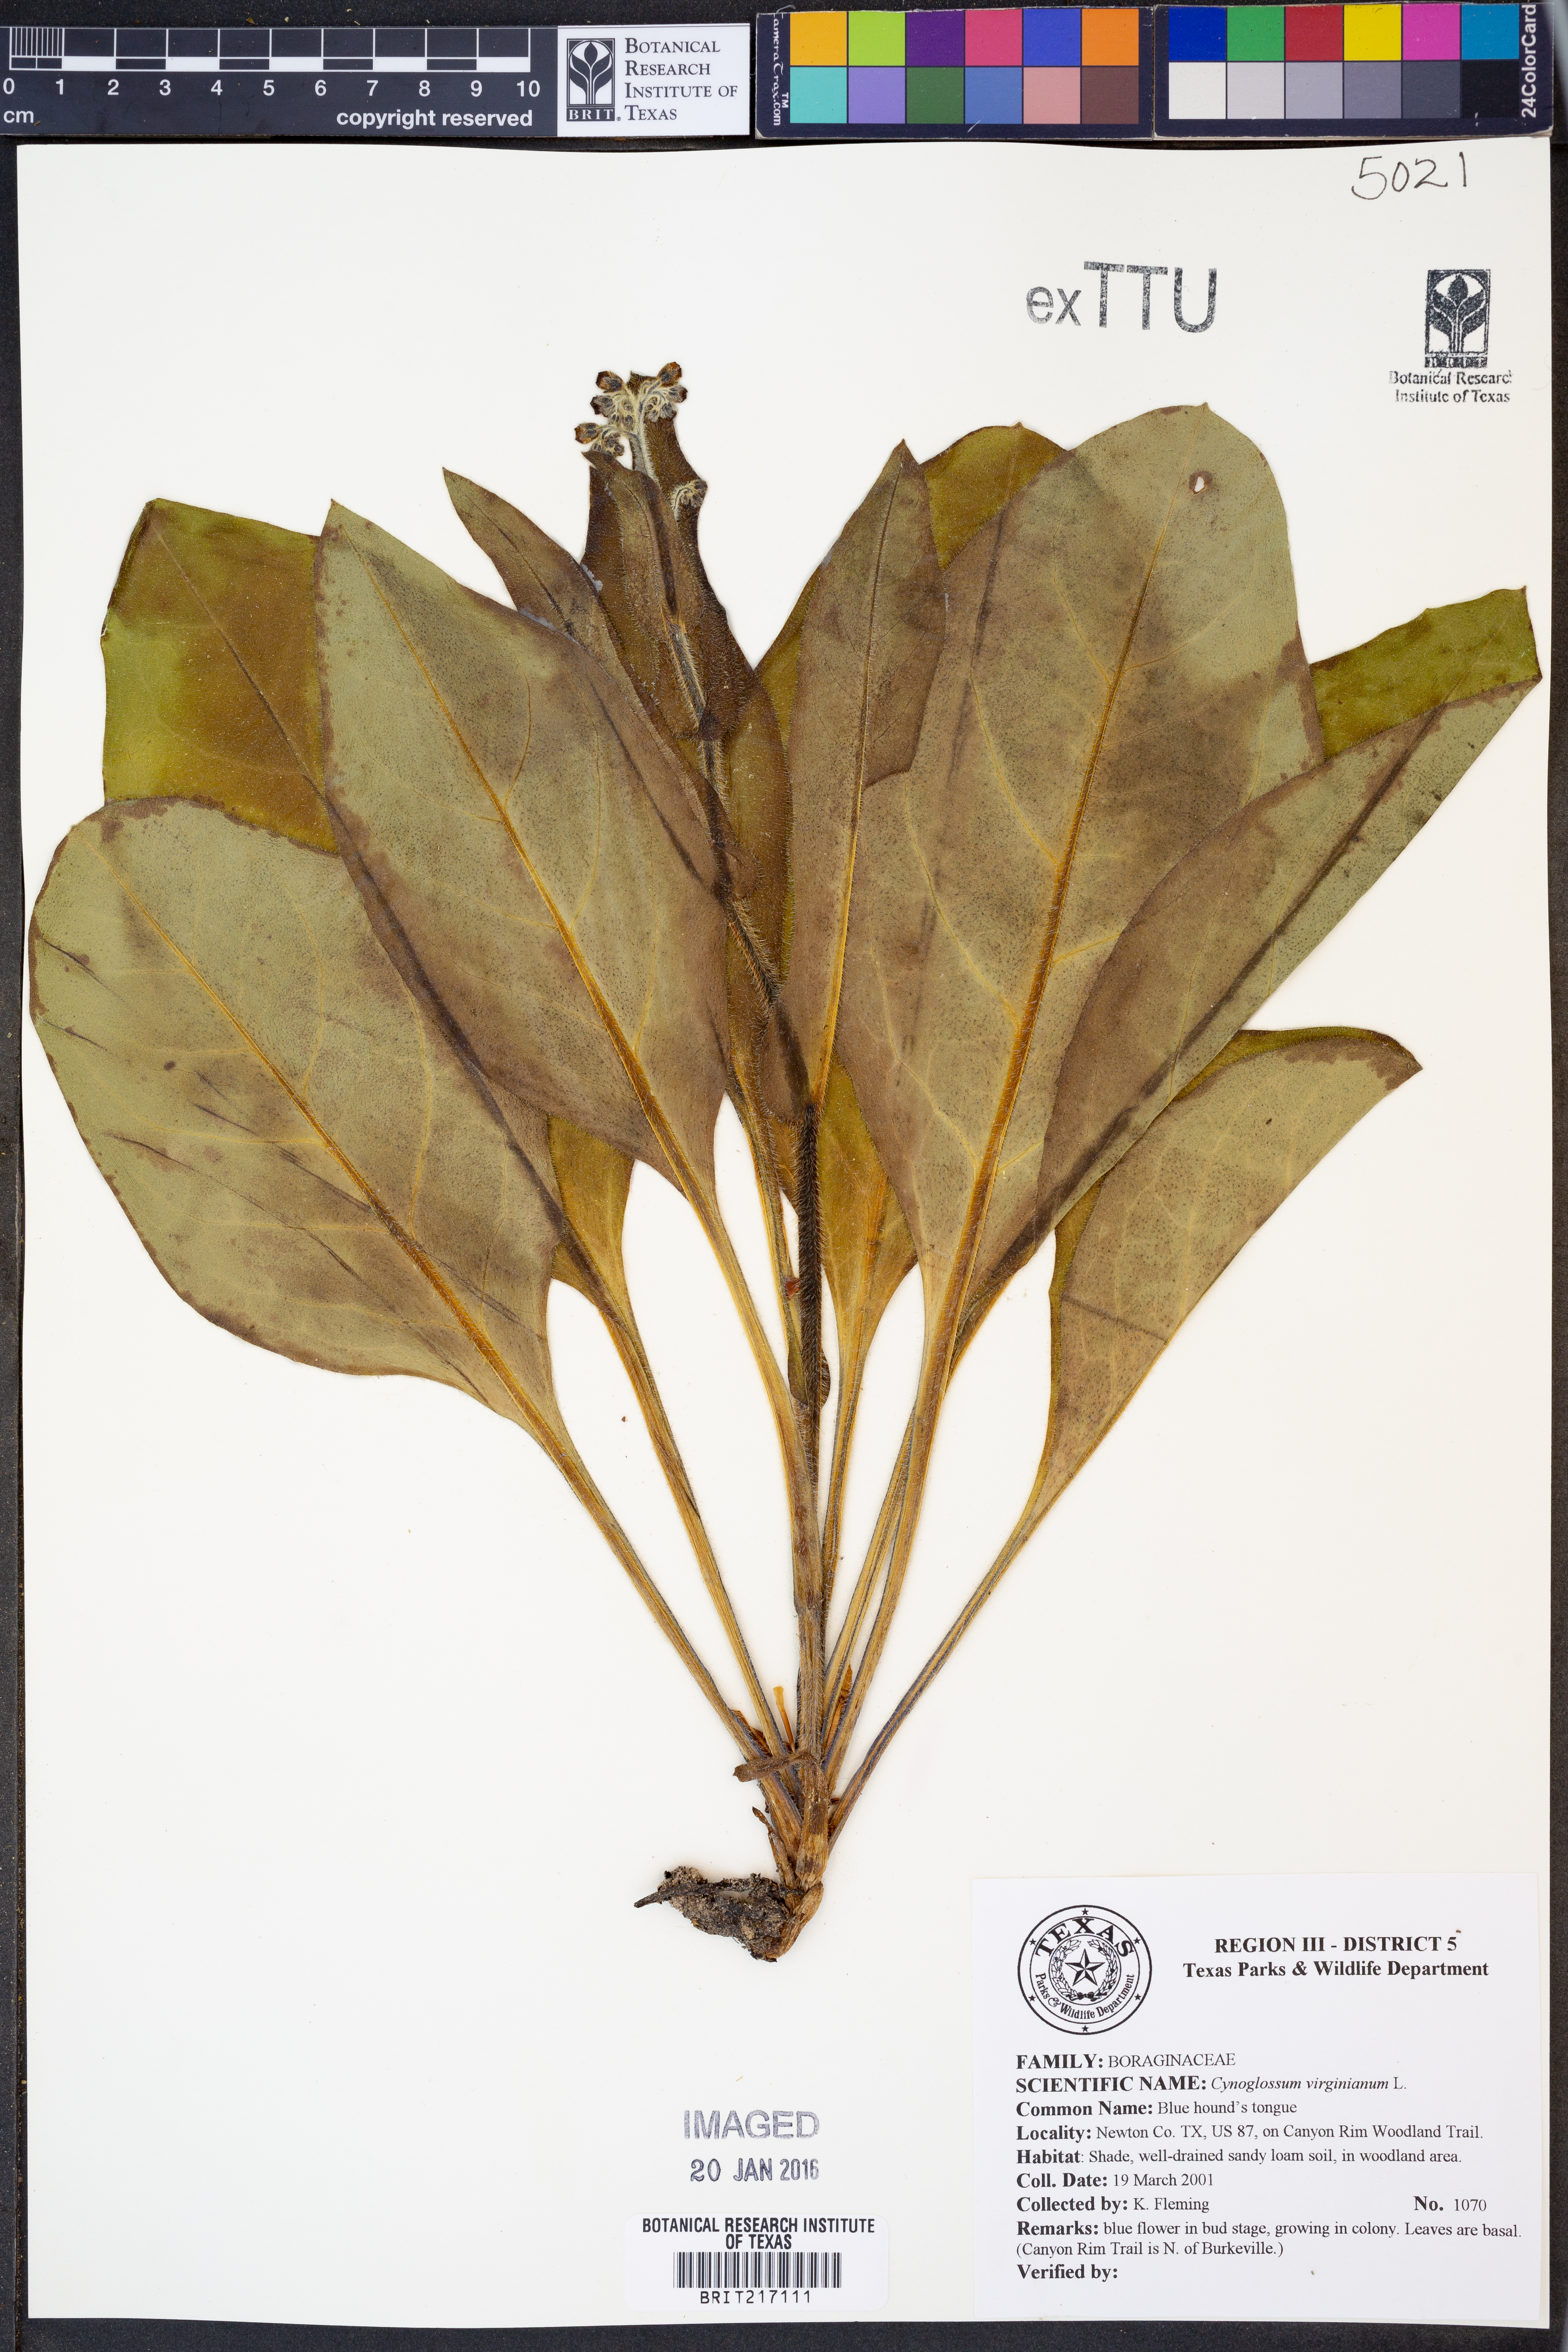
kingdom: Plantae
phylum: Tracheophyta
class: Magnoliopsida
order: Boraginales
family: Boraginaceae
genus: Andersonglossum
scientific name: Andersonglossum virginianum
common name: Wild comfrey
